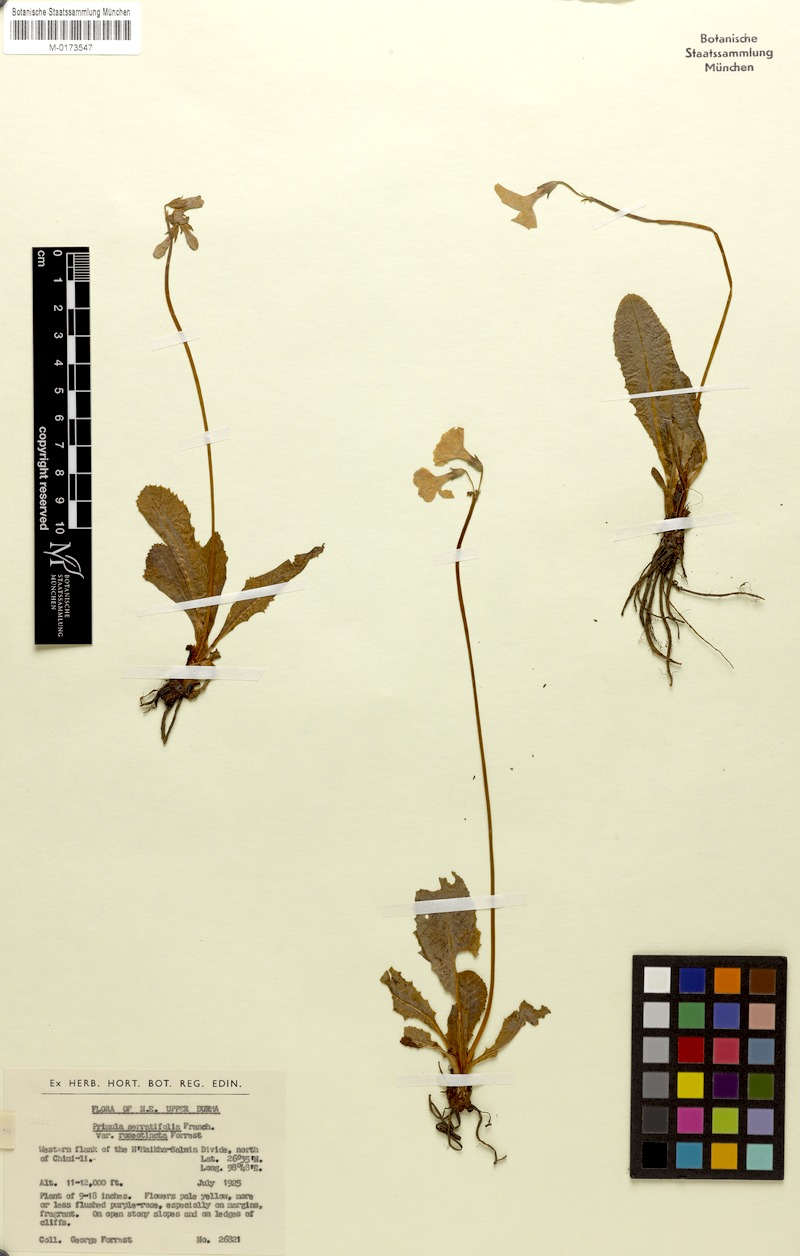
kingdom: Plantae
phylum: Tracheophyta
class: Magnoliopsida
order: Ericales
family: Primulaceae
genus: Primula
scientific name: Primula serratifolia
